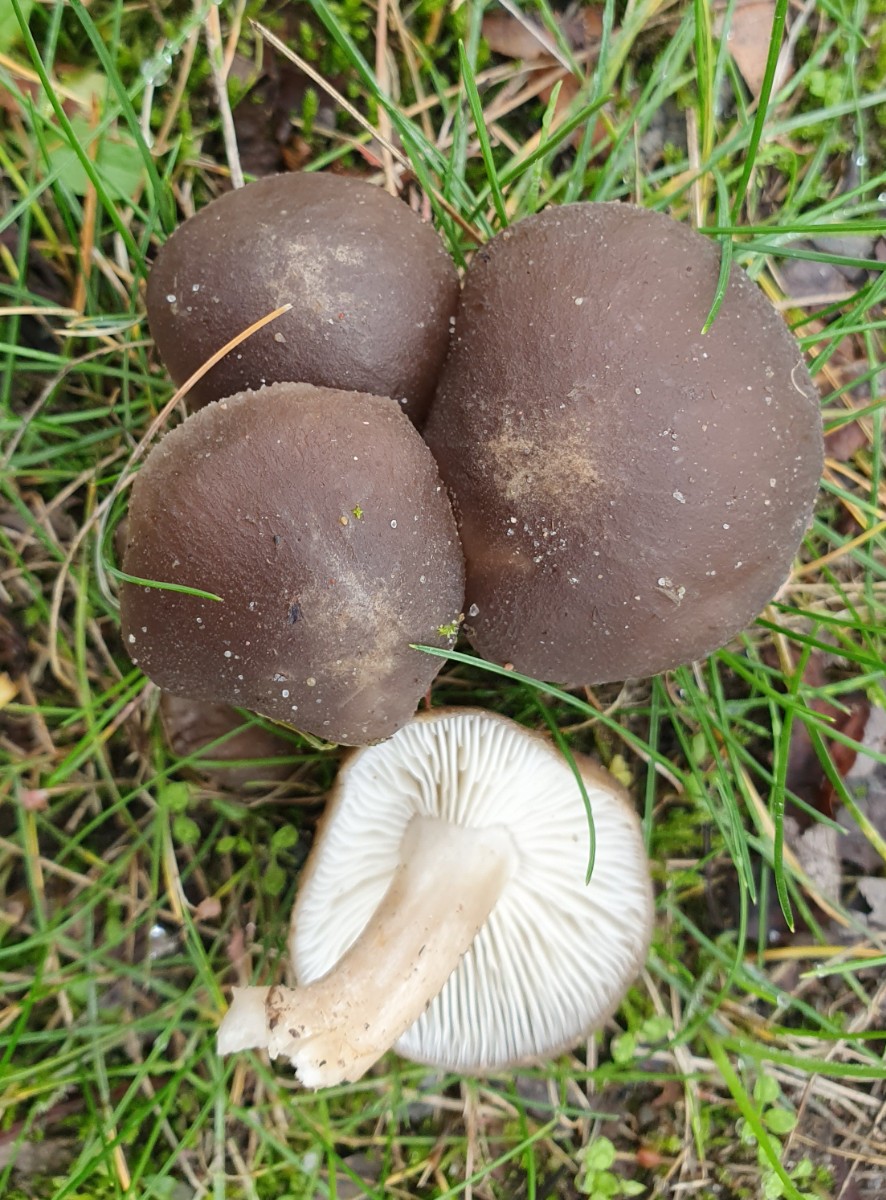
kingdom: Fungi
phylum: Basidiomycota
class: Agaricomycetes
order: Agaricales
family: Lyophyllaceae
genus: Lyophyllum
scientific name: Lyophyllum decastes
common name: Clustered domecap
